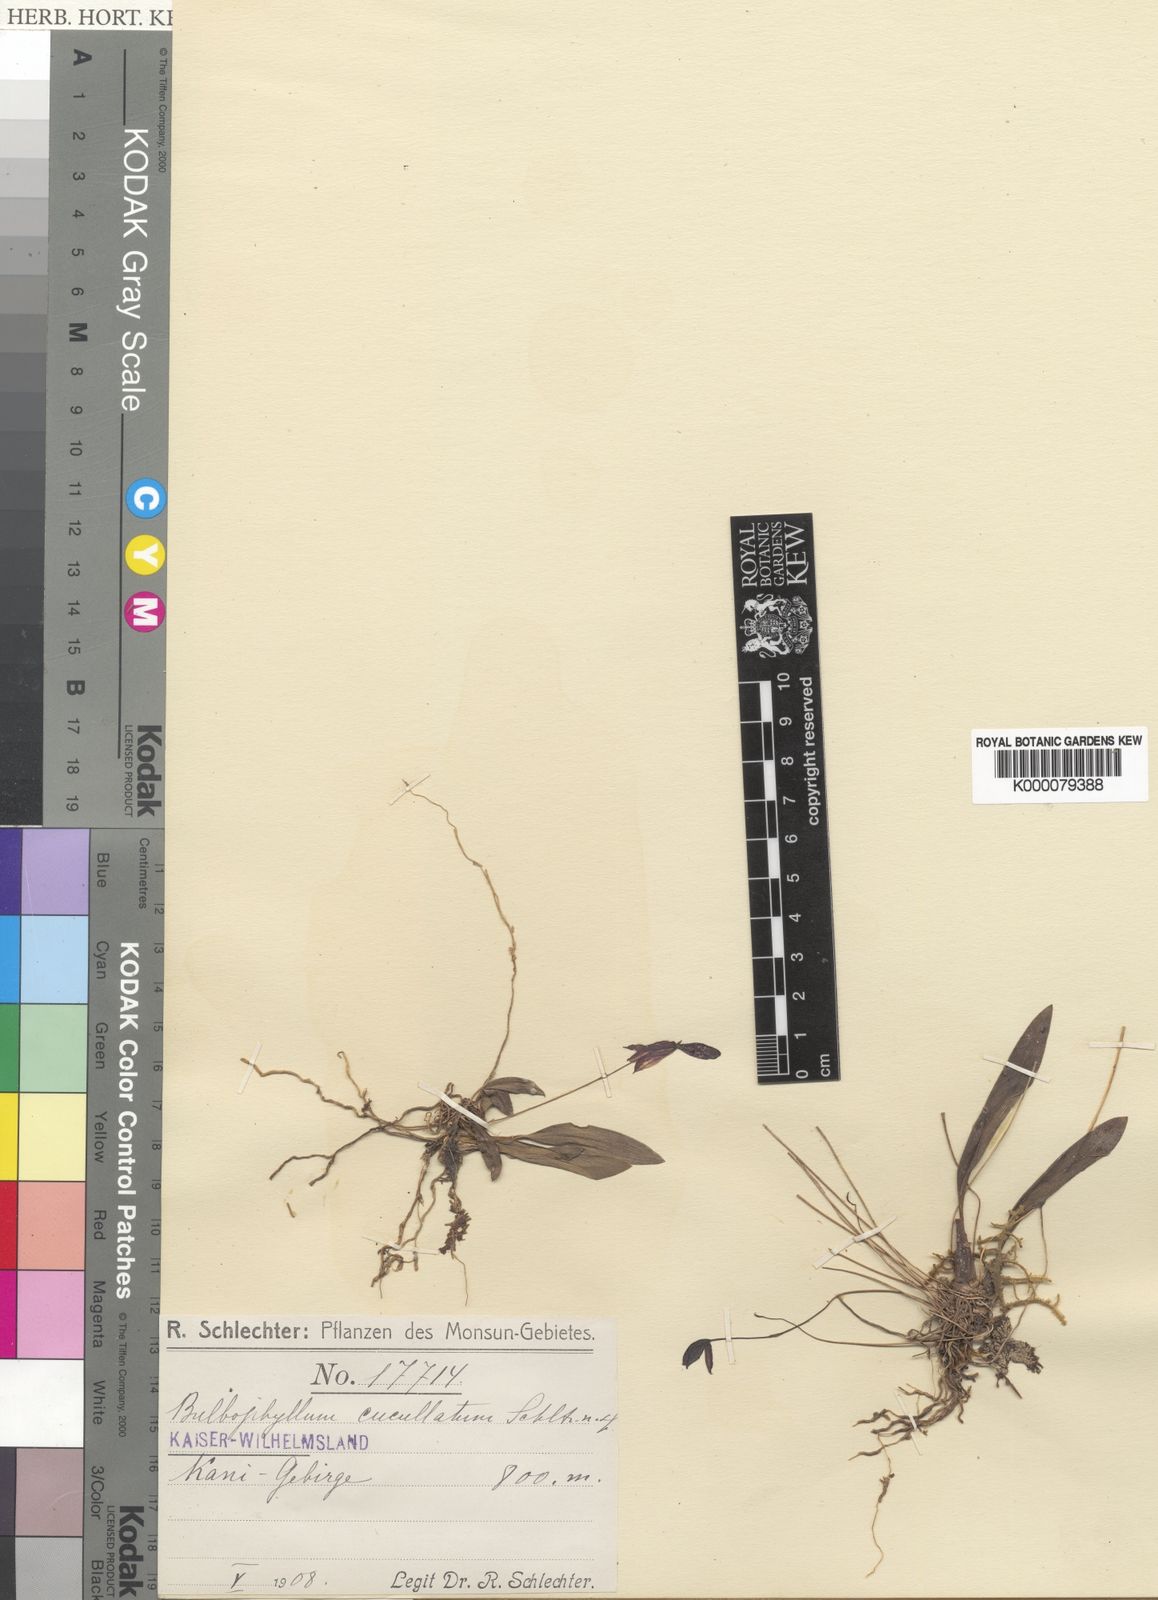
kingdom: Plantae
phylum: Tracheophyta
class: Liliopsida
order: Asparagales
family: Orchidaceae
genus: Bulbophyllum
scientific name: Bulbophyllum cuniculiforme
